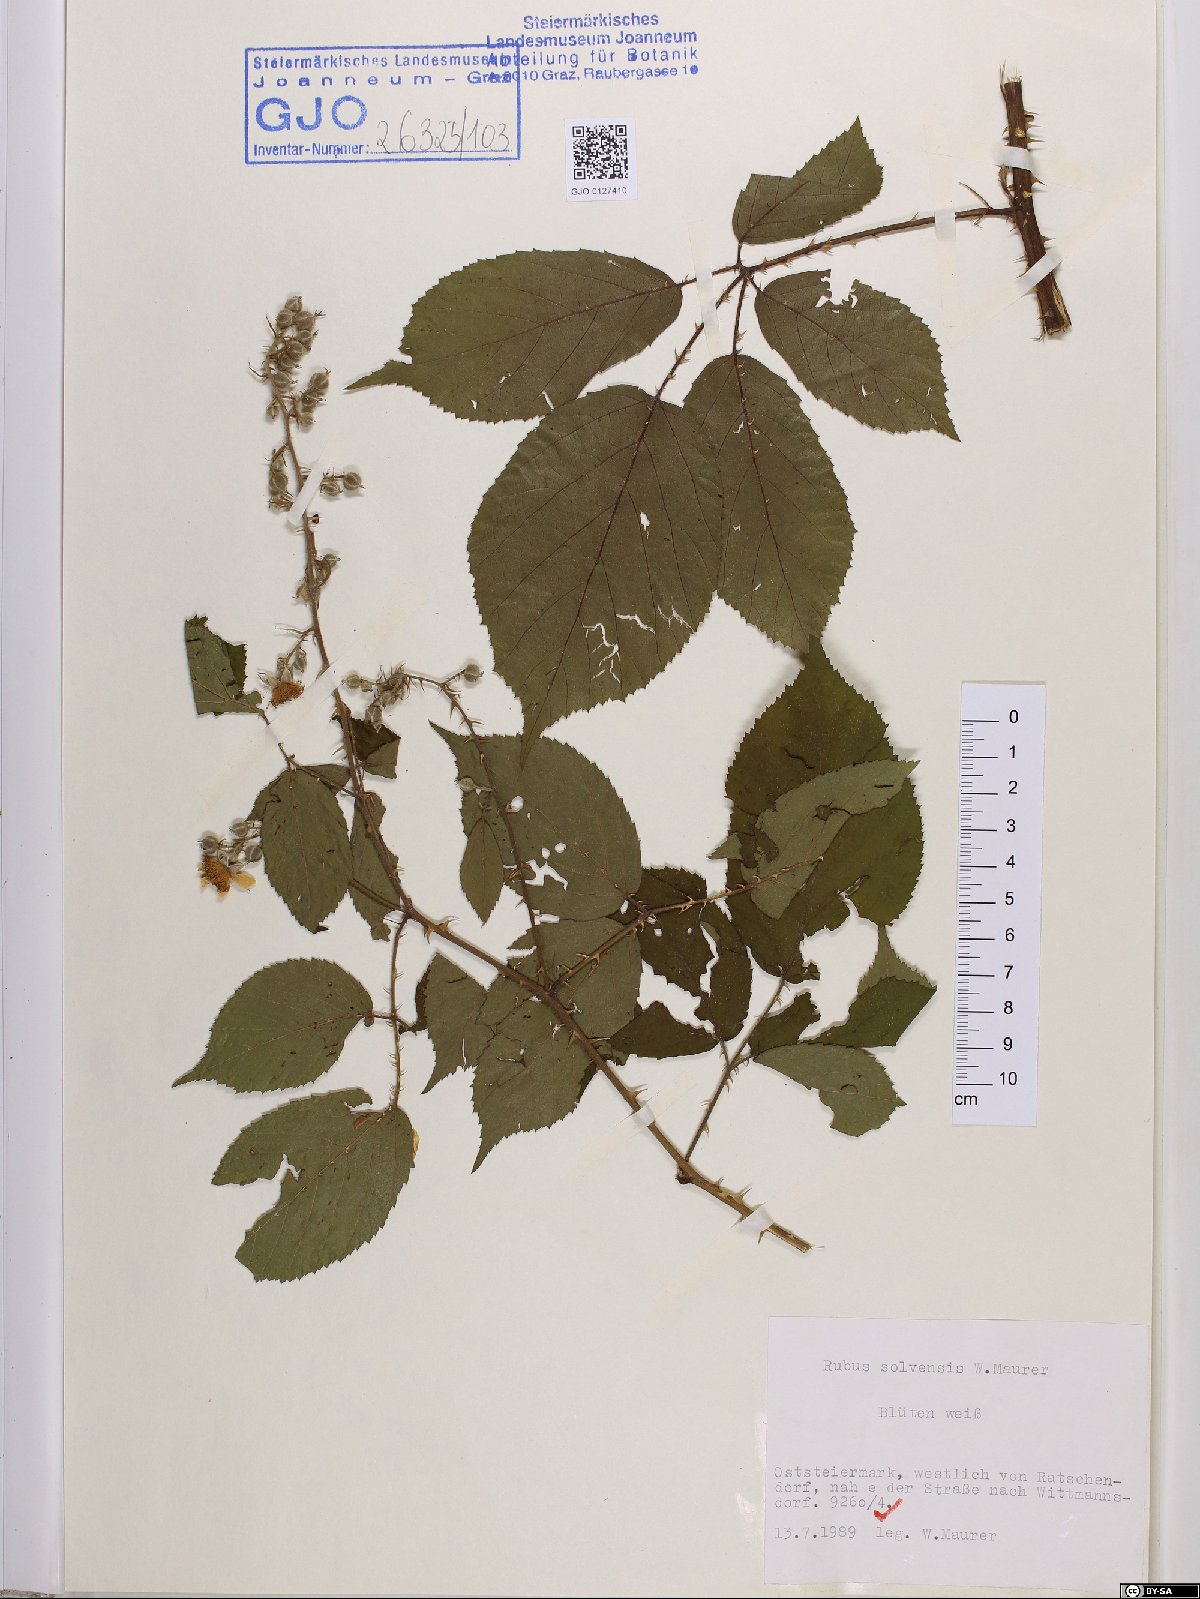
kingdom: Plantae
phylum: Tracheophyta
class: Magnoliopsida
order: Rosales
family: Rosaceae
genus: Rubus
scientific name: Rubus solvensis
